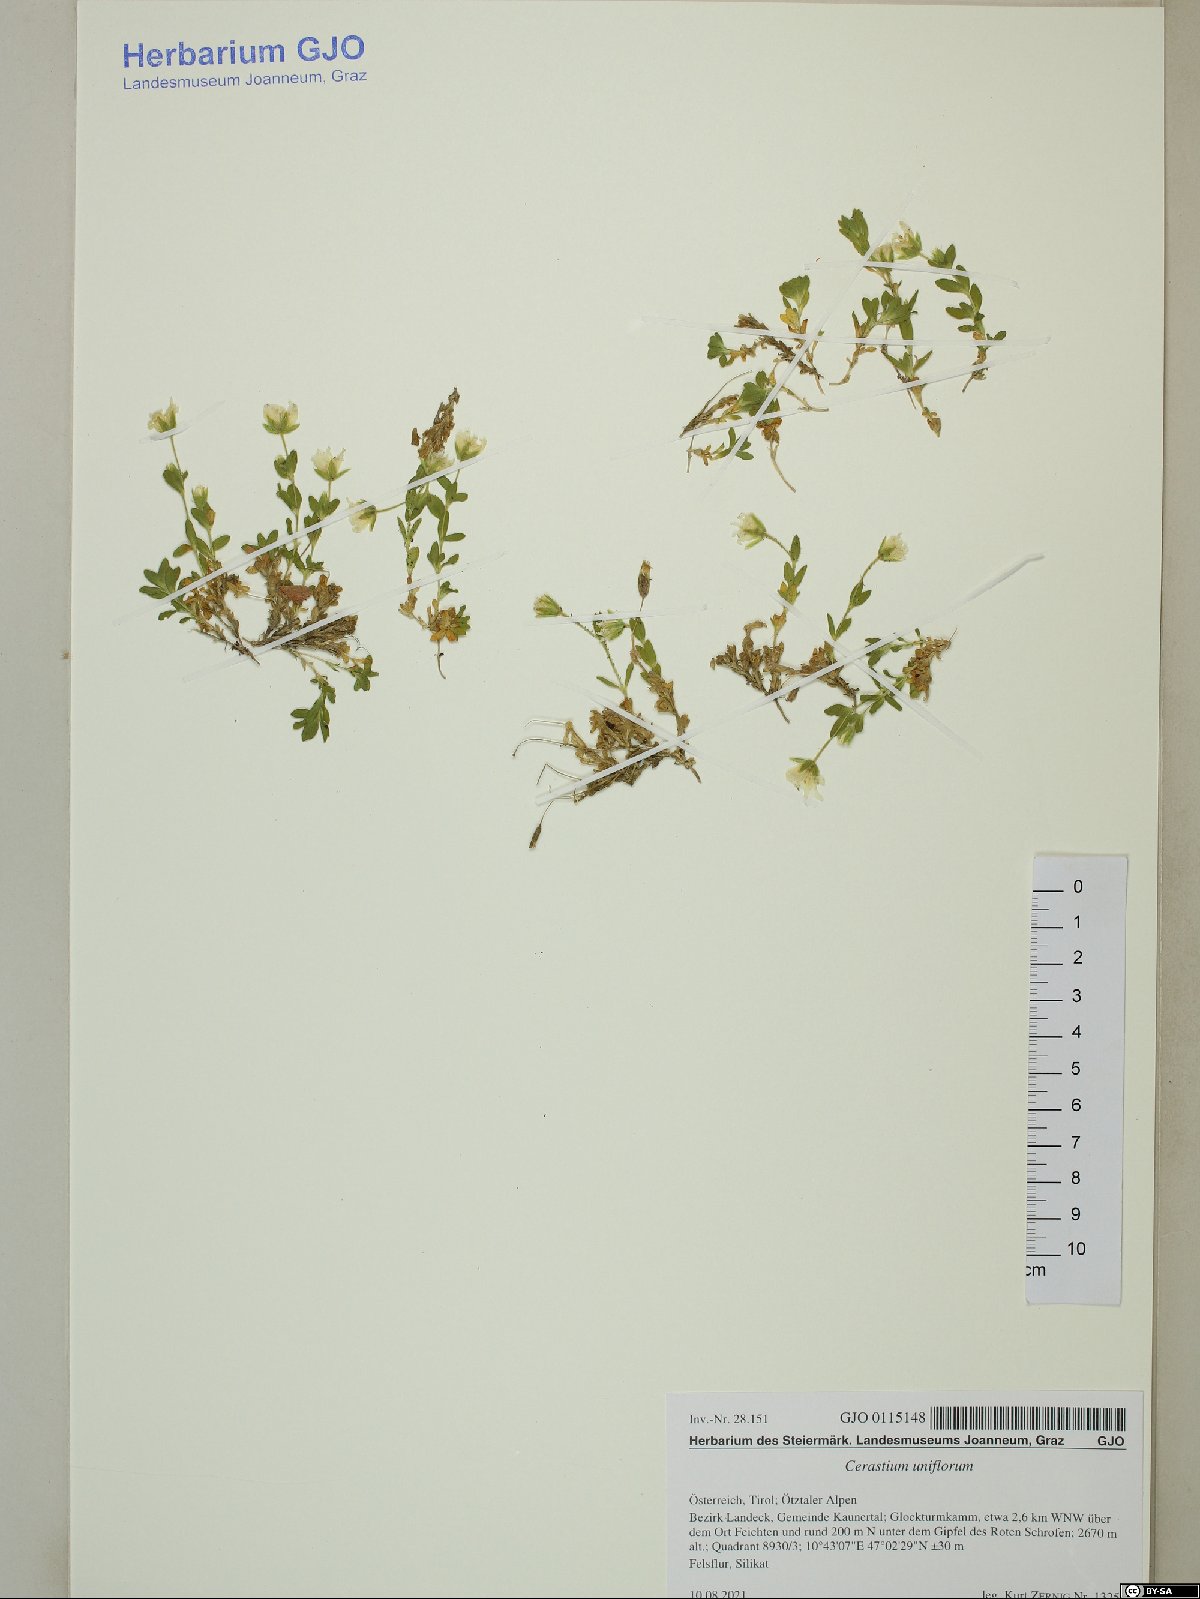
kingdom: Plantae
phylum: Tracheophyta
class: Magnoliopsida
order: Caryophyllales
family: Caryophyllaceae
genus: Cerastium
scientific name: Cerastium uniflorum
